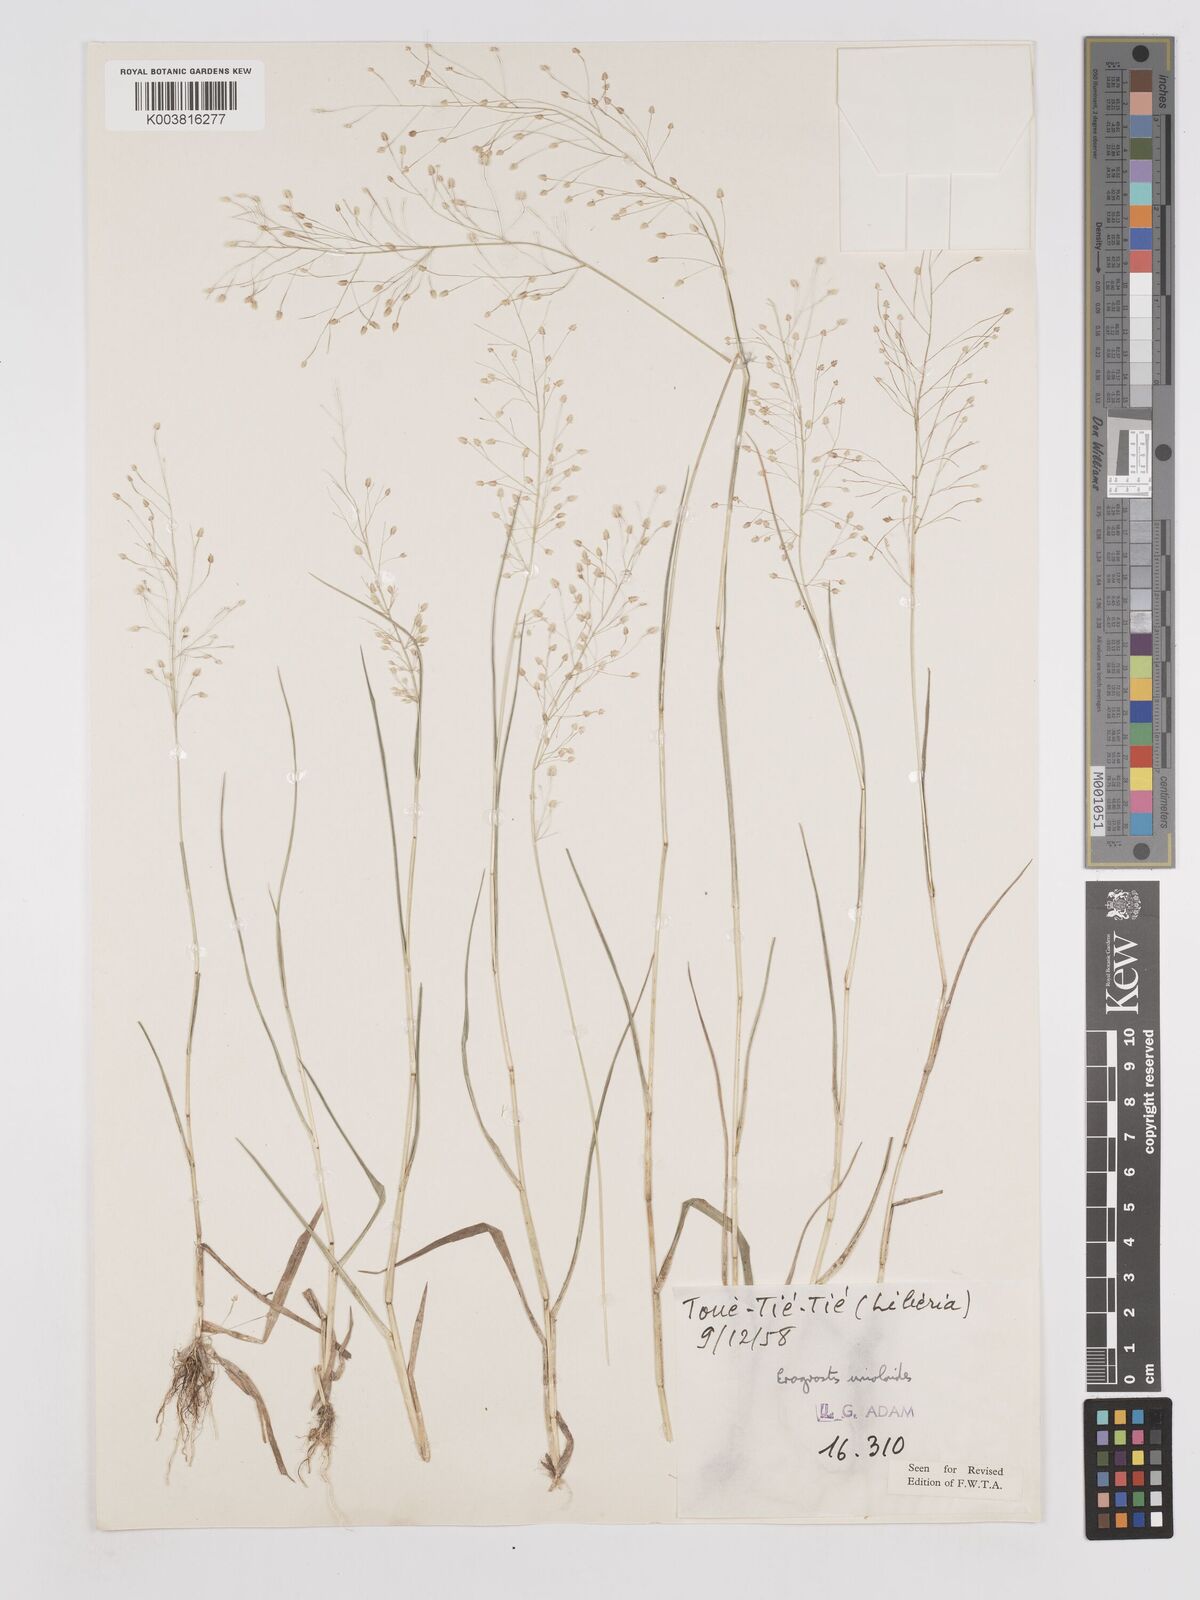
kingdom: Plantae
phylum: Tracheophyta
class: Liliopsida
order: Poales
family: Poaceae
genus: Eragrostis
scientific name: Eragrostis unioloides
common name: Chinese lovegrass
